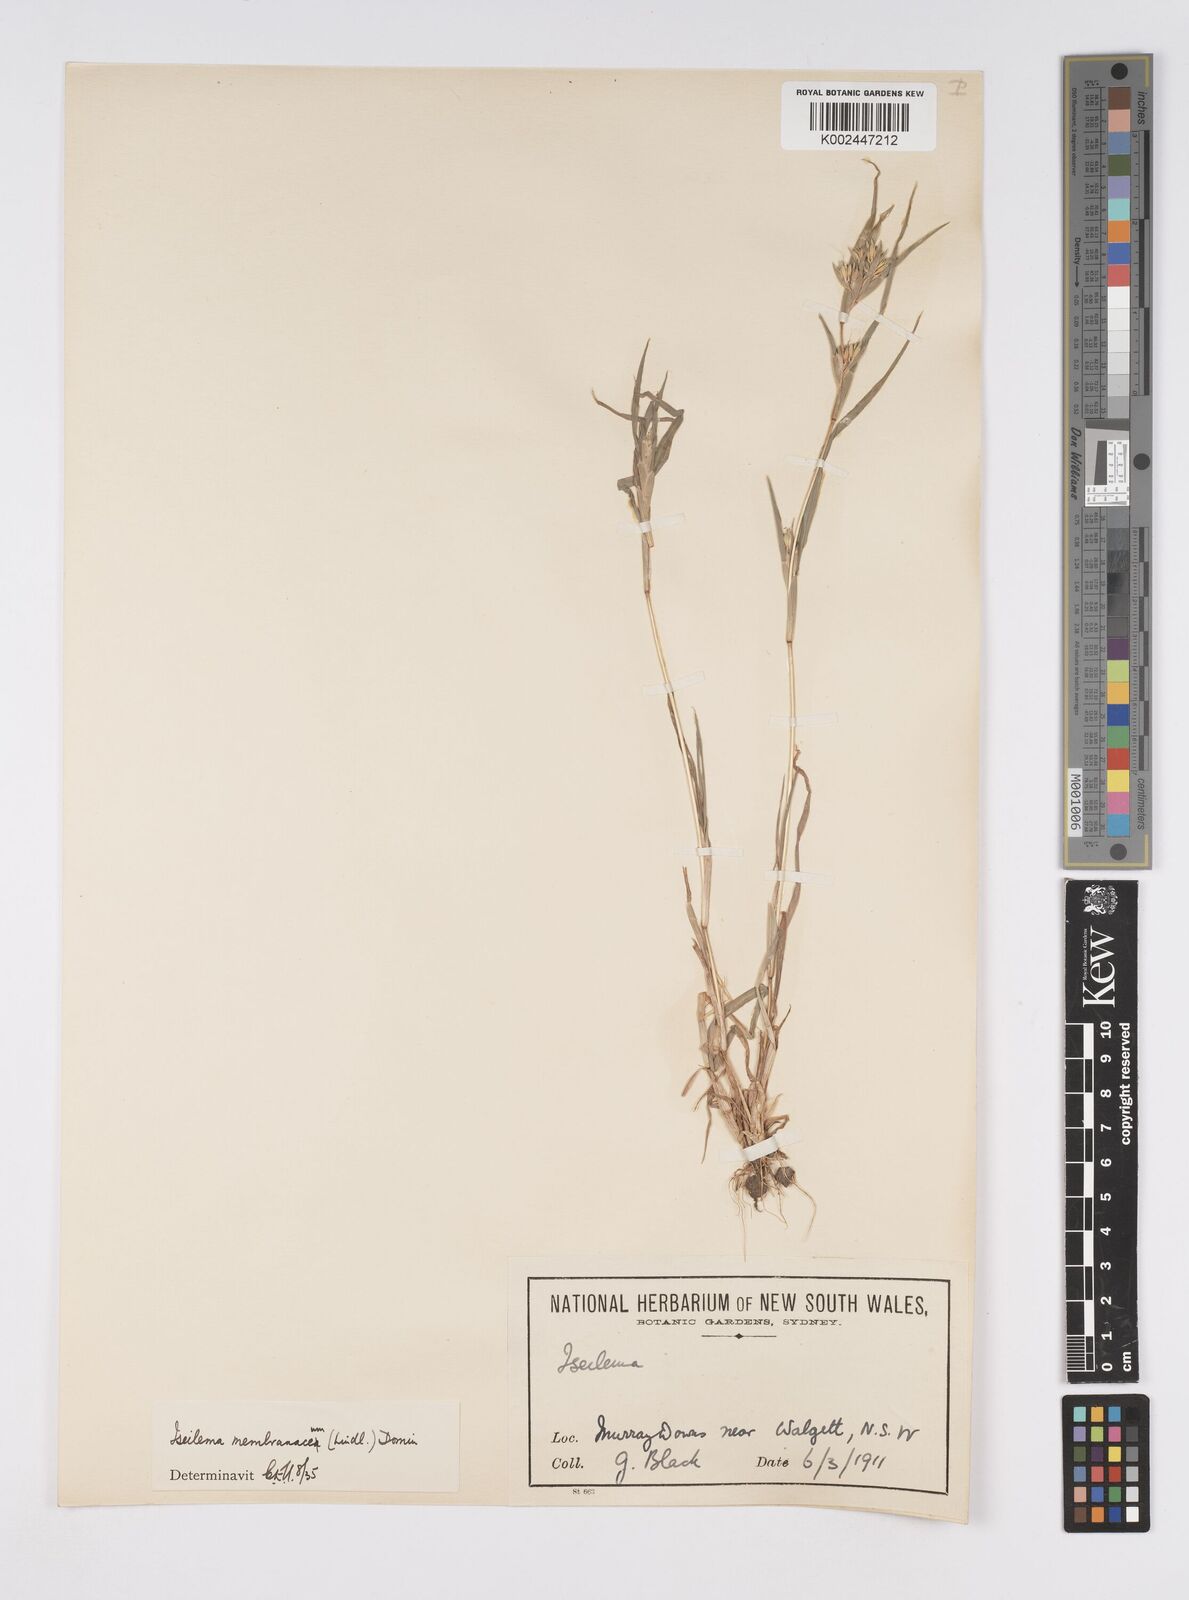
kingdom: Plantae
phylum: Tracheophyta
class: Liliopsida
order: Poales
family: Poaceae
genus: Iseilema
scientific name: Iseilema membranaceum
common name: Small flinders grass
